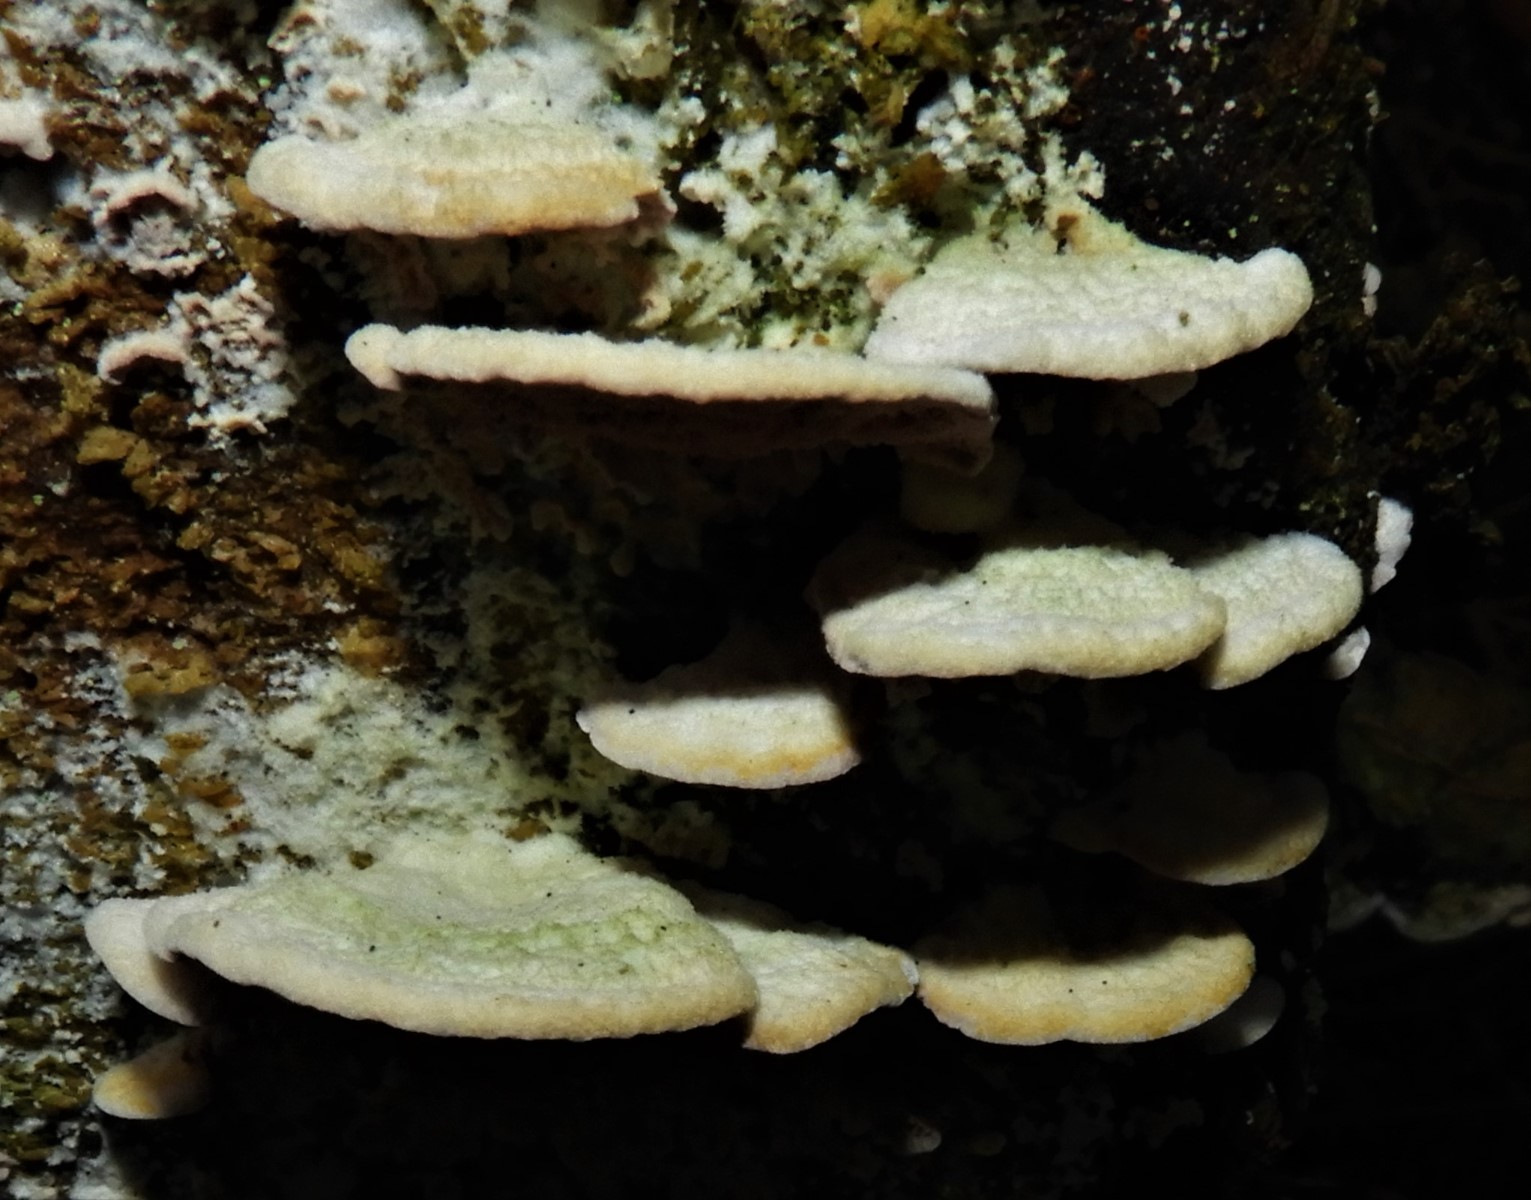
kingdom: Fungi
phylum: Basidiomycota
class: Agaricomycetes
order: Hymenochaetales
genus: Trichaptum
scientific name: Trichaptum abietinum
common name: almindelig violporesvamp
